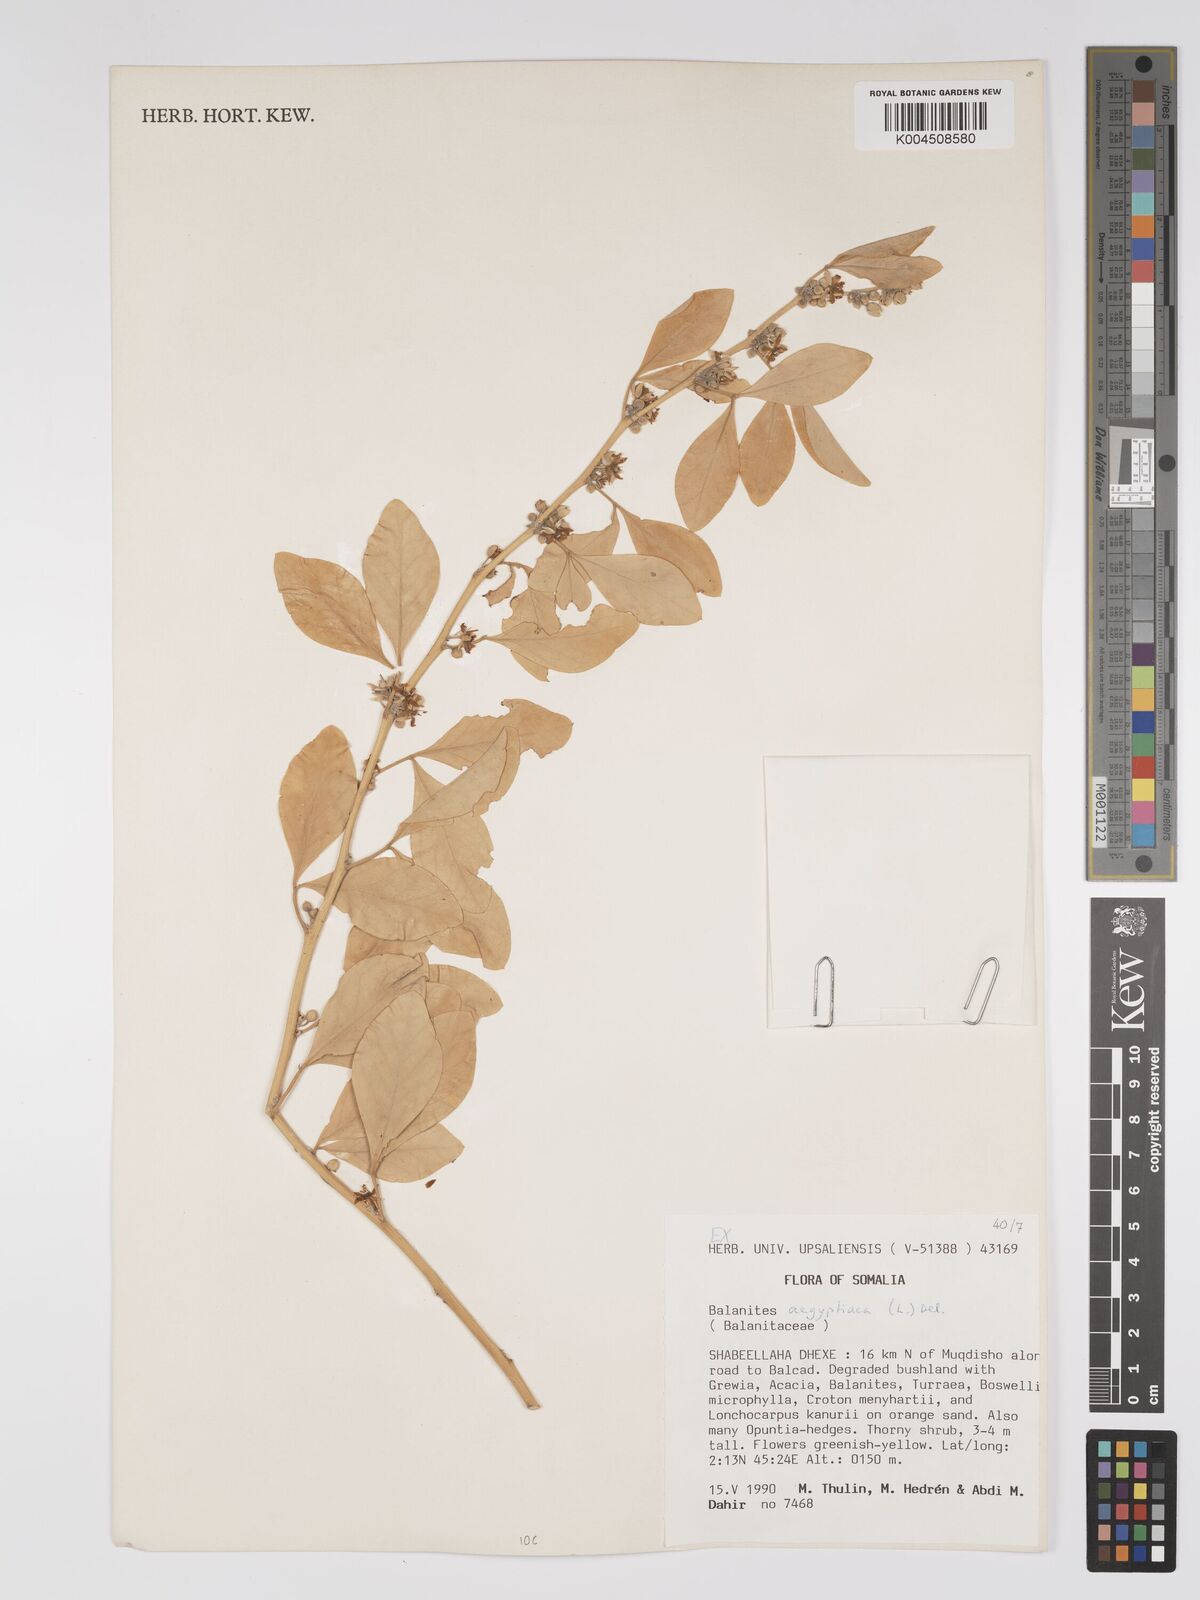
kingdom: Plantae
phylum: Tracheophyta
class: Magnoliopsida
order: Zygophyllales
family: Zygophyllaceae
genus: Balanites
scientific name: Balanites aegyptiaca
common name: Balanites
